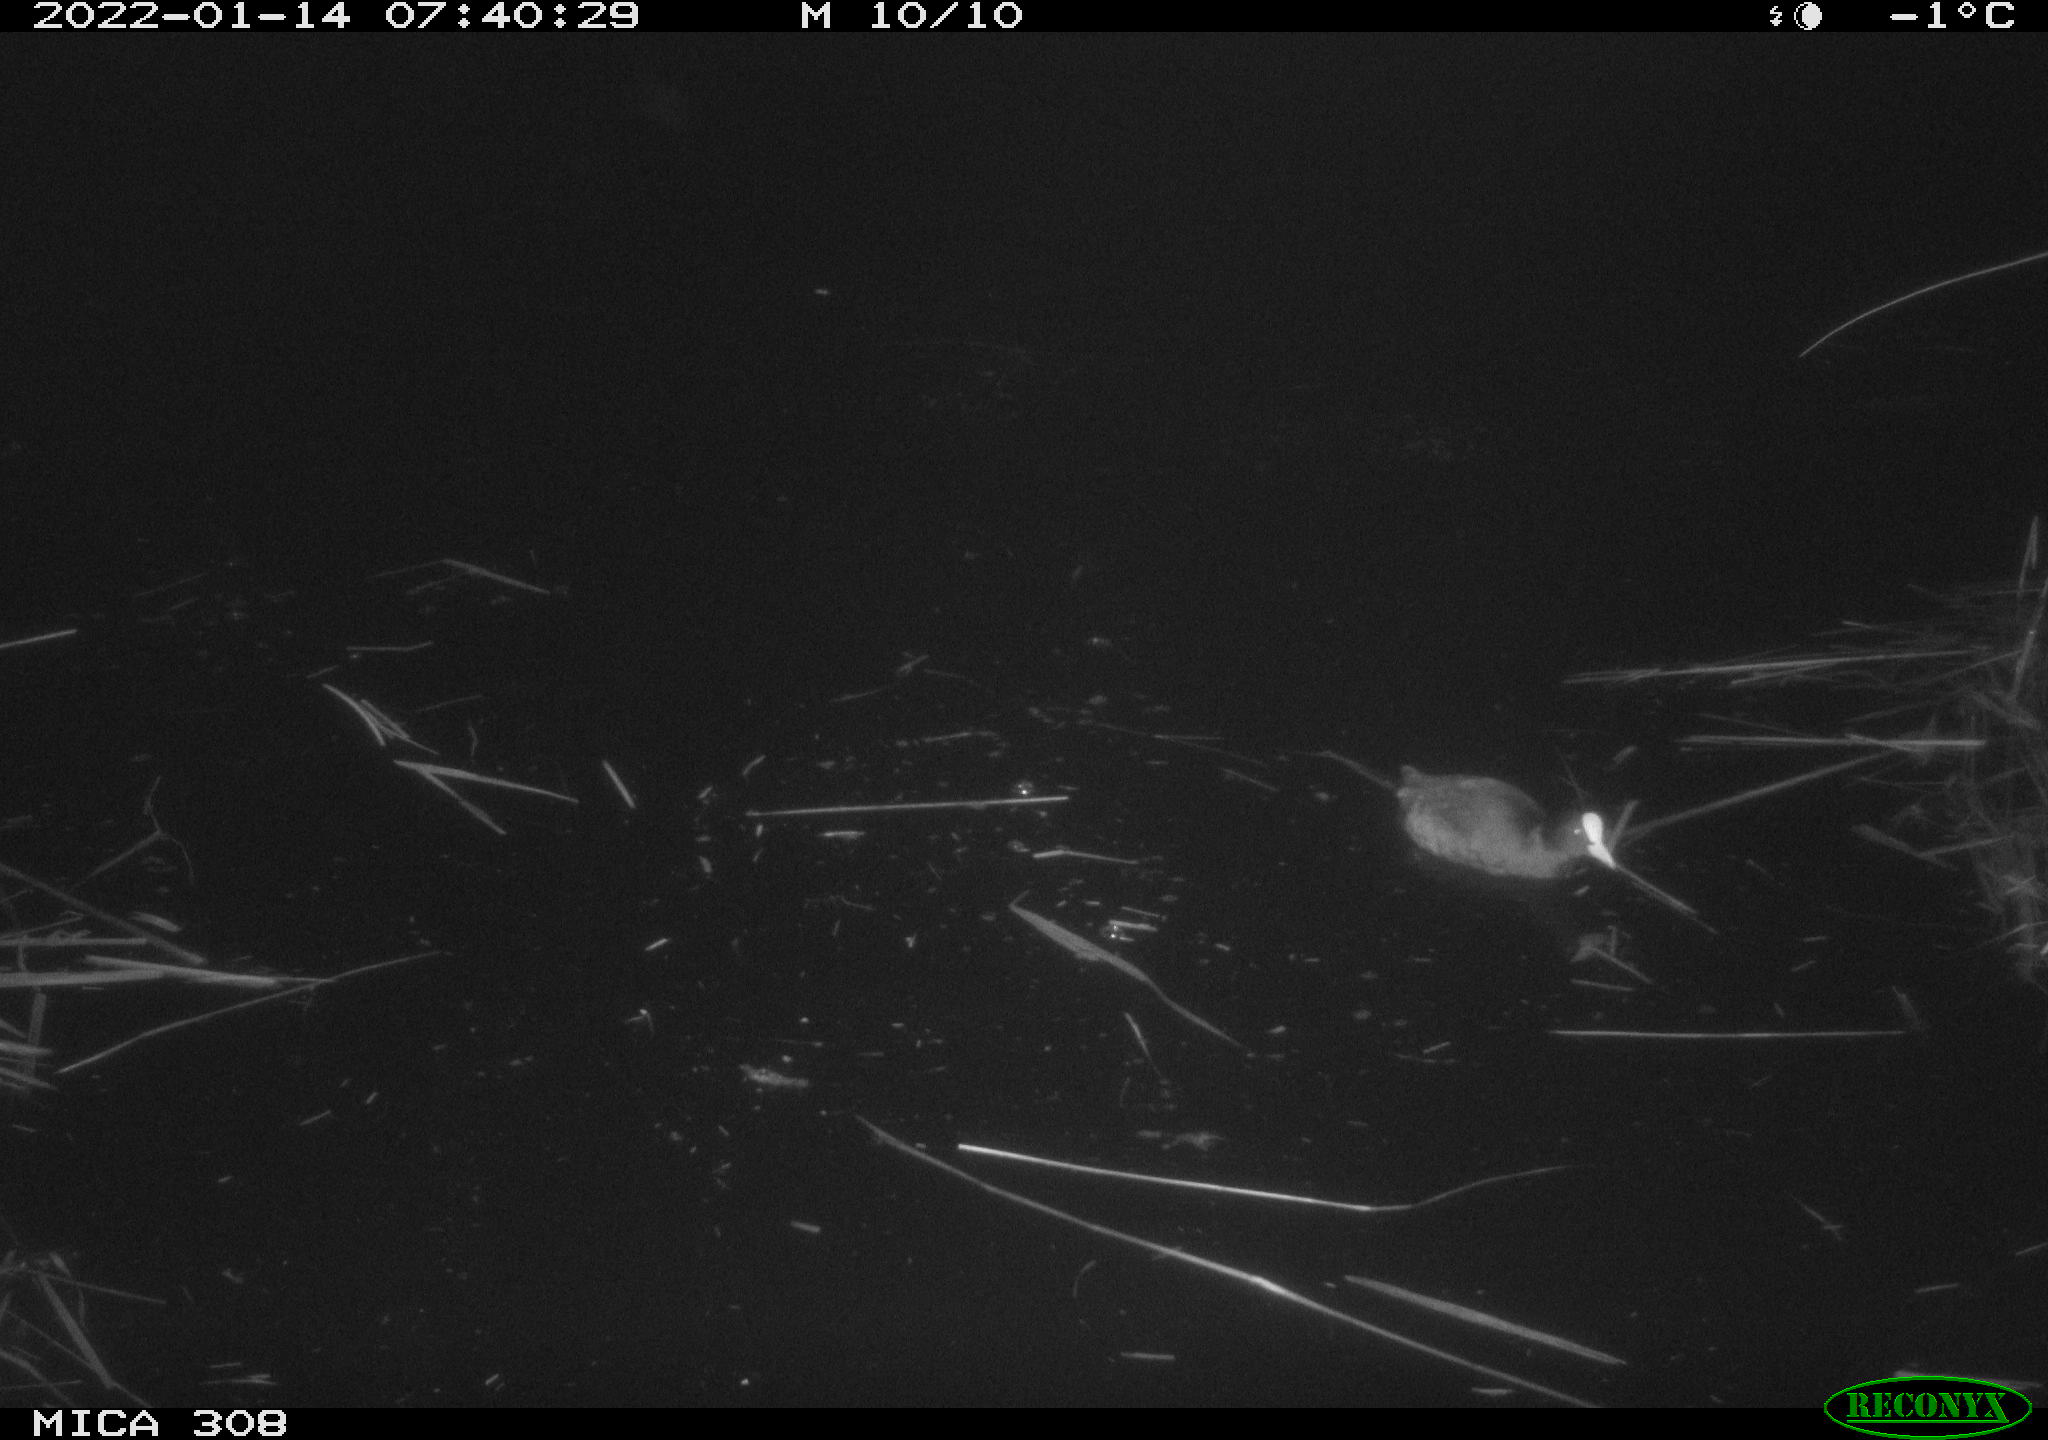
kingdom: Animalia
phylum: Chordata
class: Aves
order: Gruiformes
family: Rallidae
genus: Gallinula
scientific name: Gallinula chloropus
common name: Common moorhen
